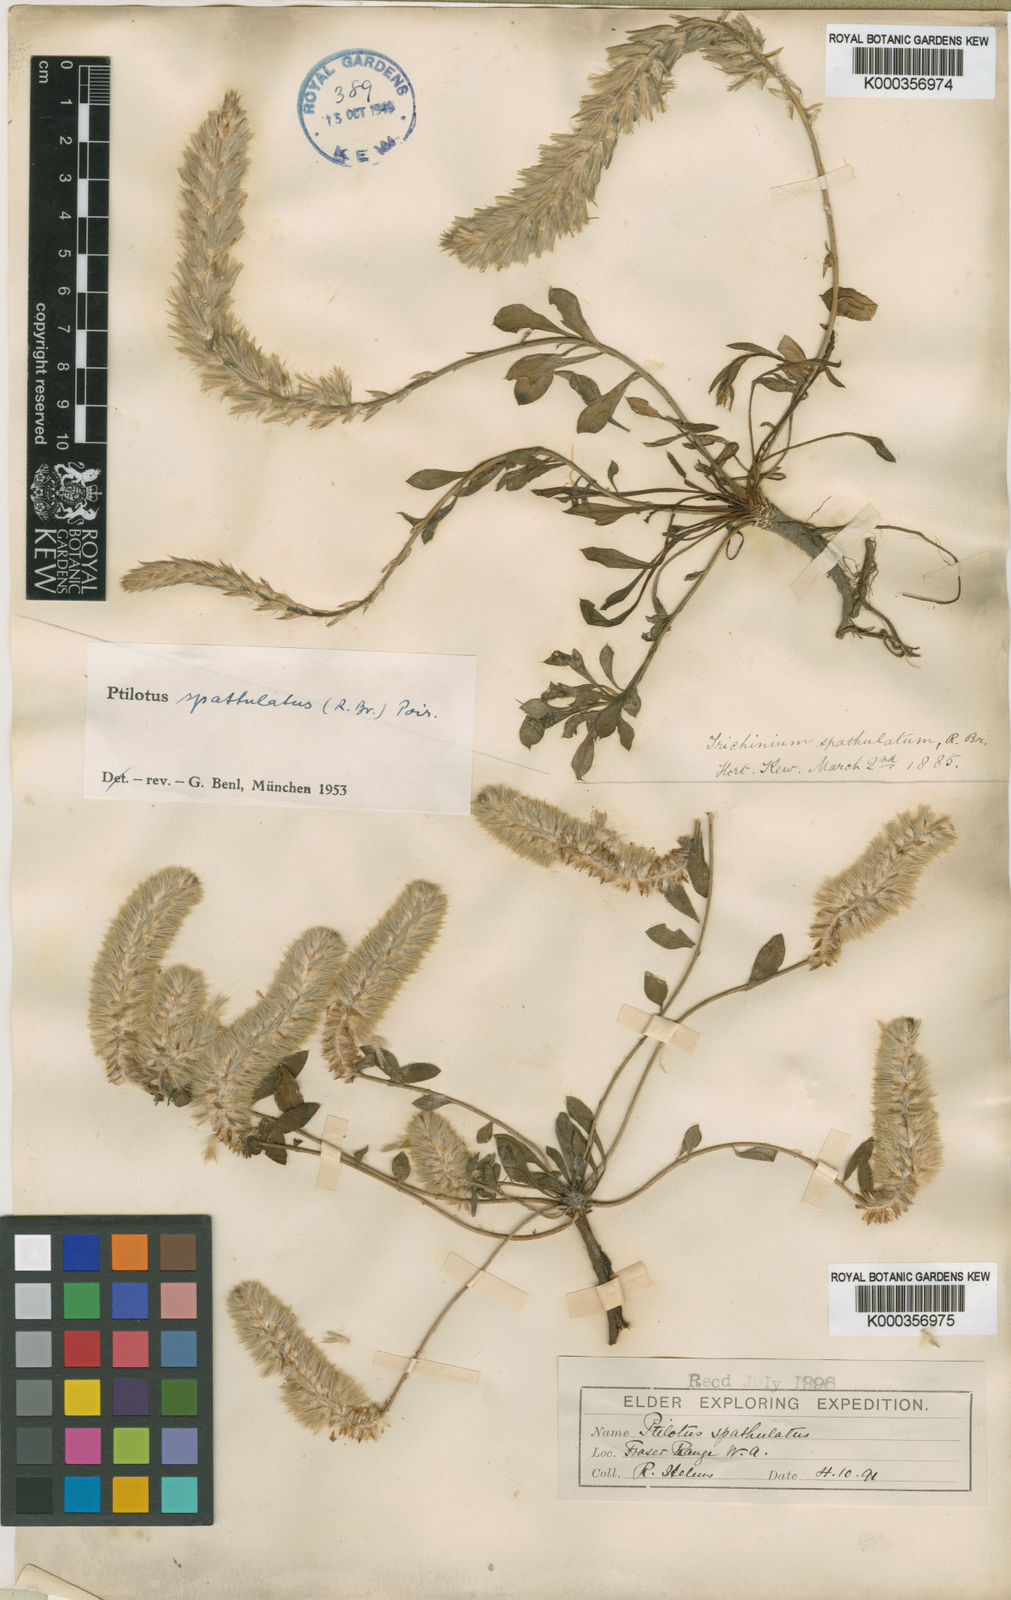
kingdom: Plantae
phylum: Tracheophyta
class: Magnoliopsida
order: Caryophyllales
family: Amaranthaceae
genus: Ptilotus
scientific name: Ptilotus spathulatus
